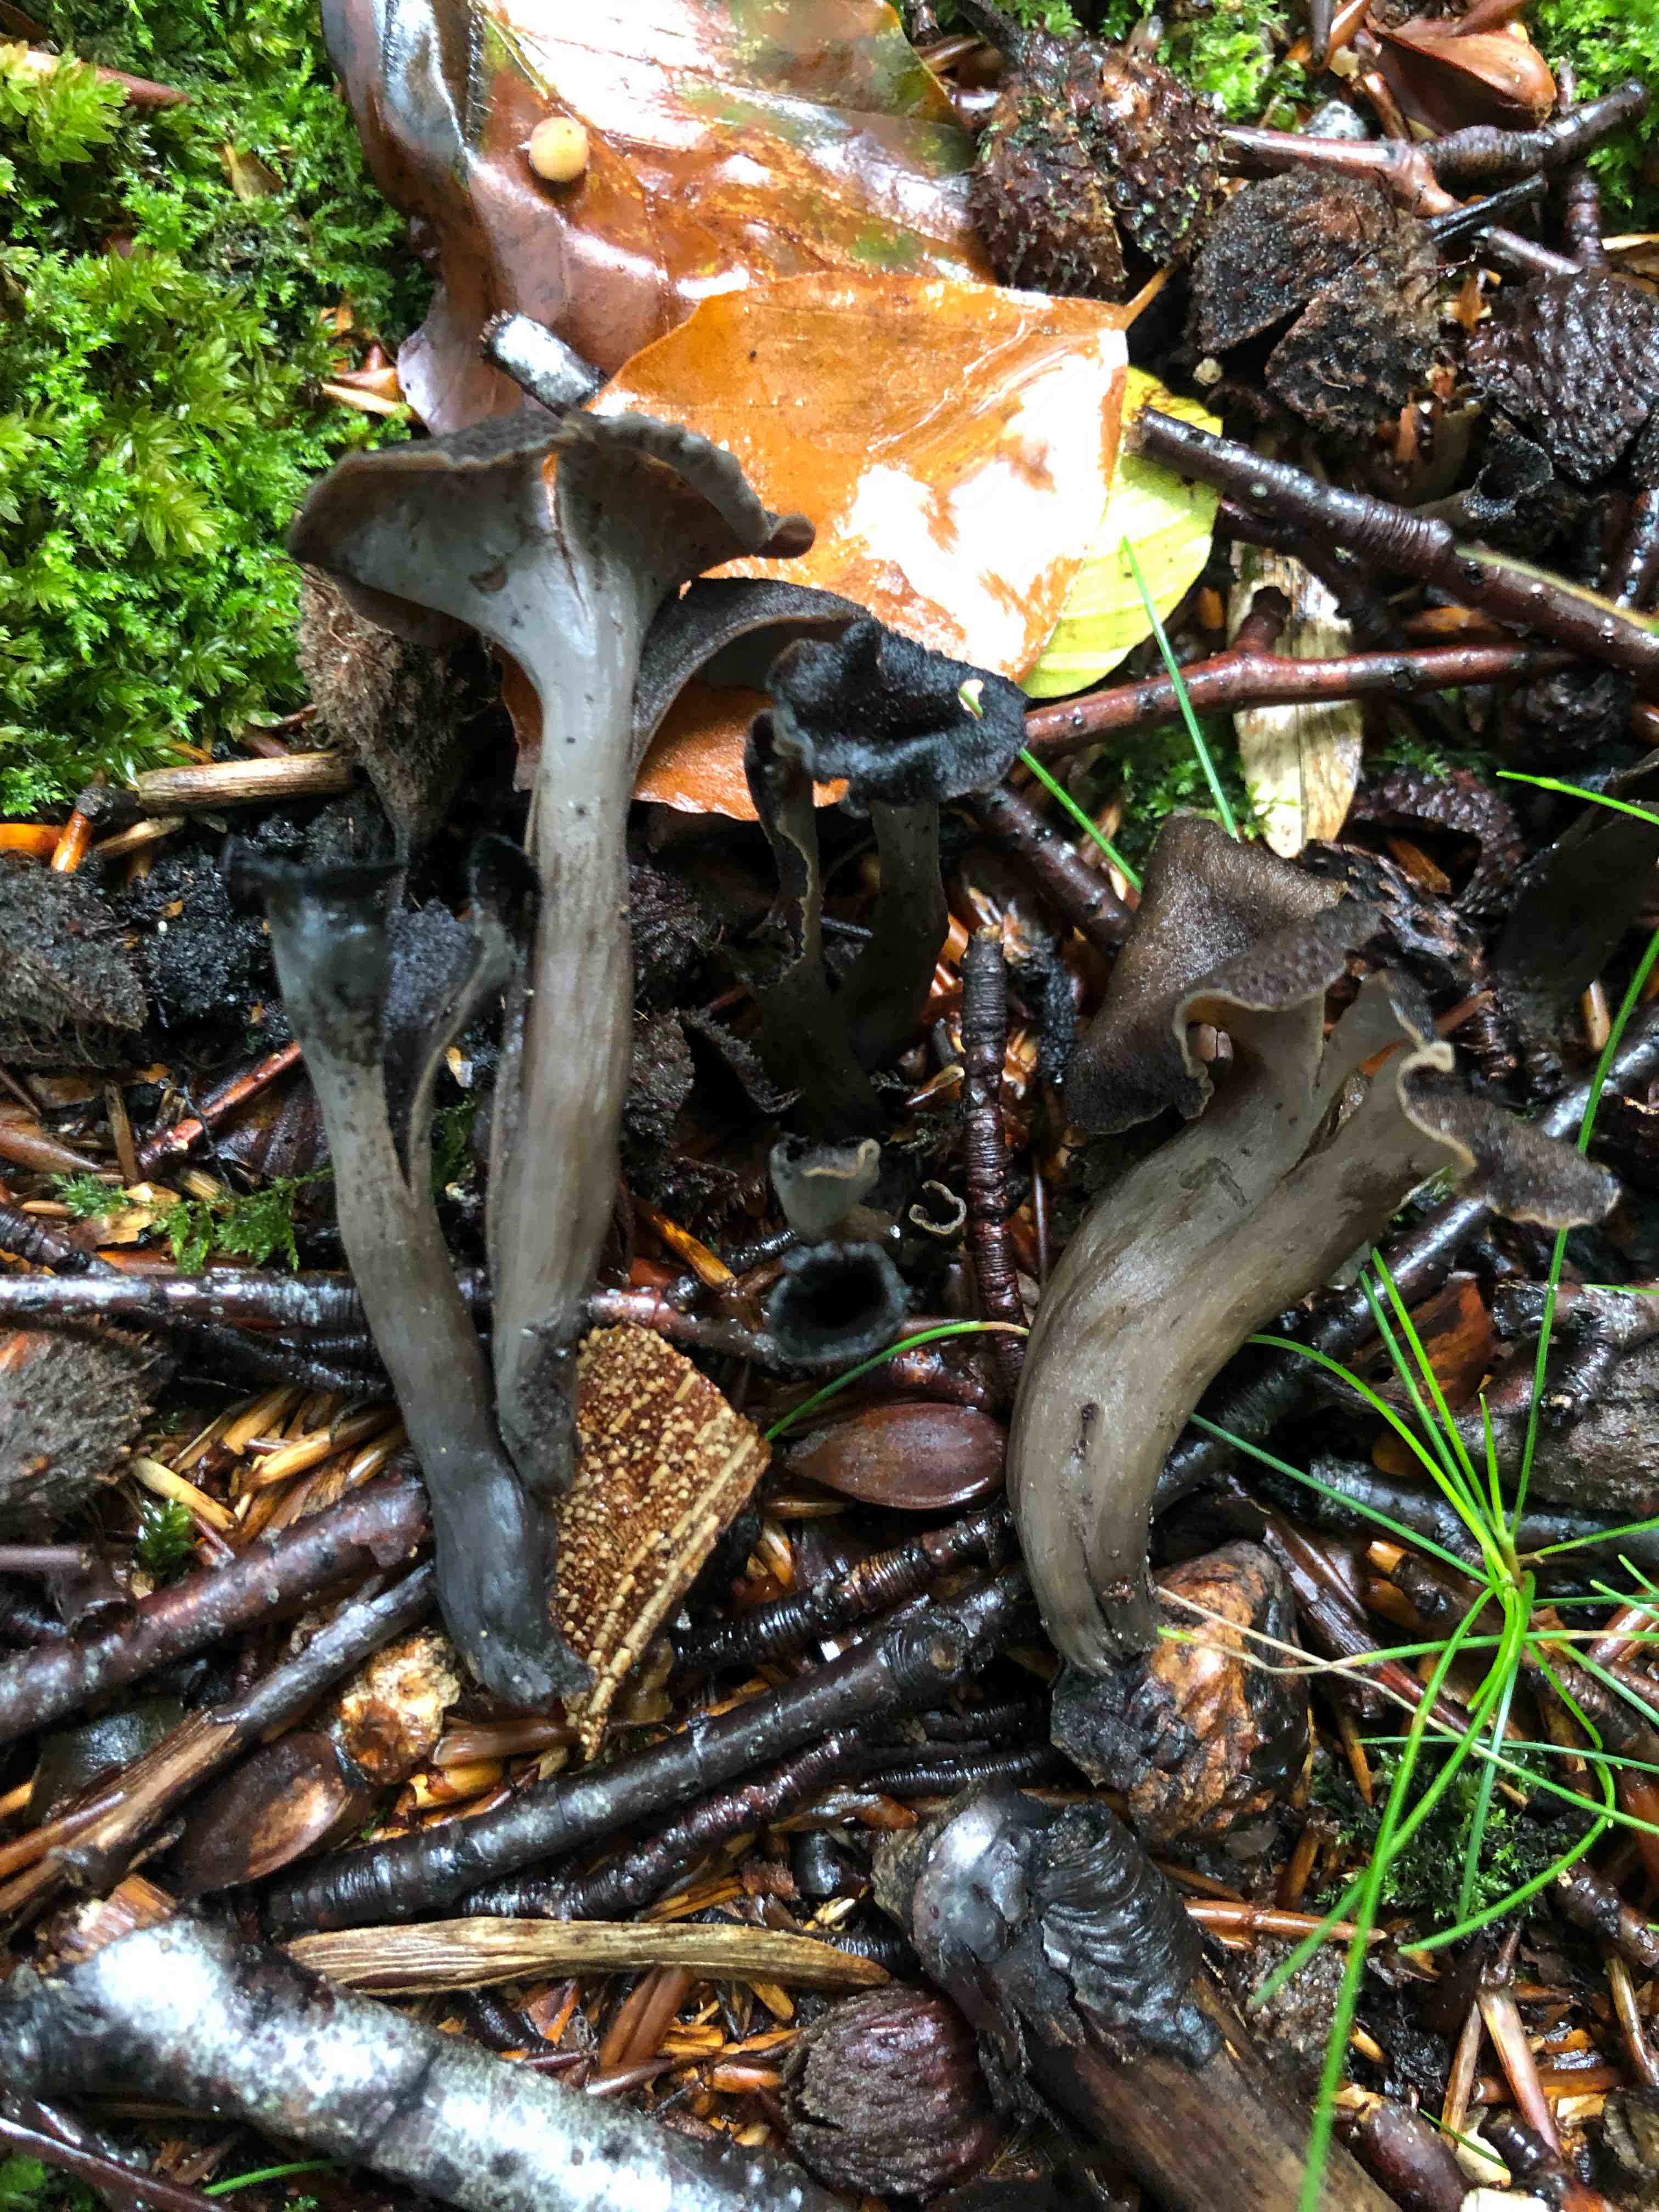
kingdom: Fungi
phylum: Basidiomycota
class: Agaricomycetes
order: Cantharellales
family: Hydnaceae
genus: Craterellus
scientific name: Craterellus cornucopioides
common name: trompetsvamp
